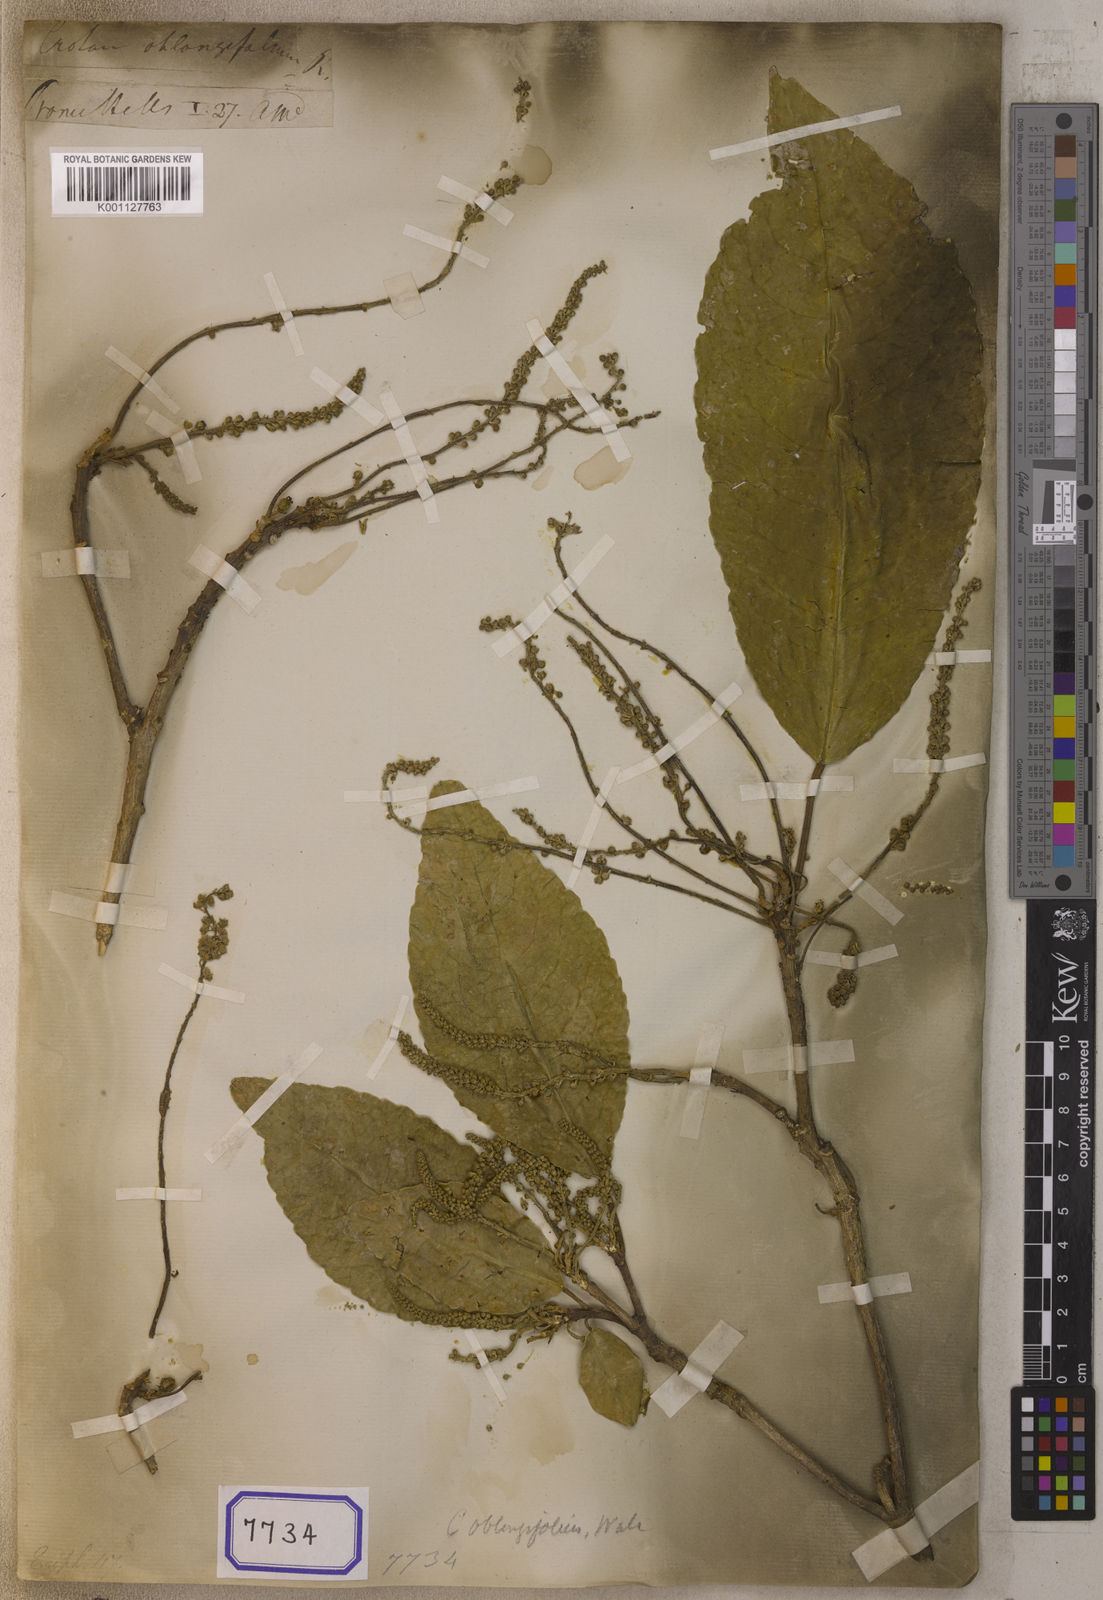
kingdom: Plantae
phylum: Tracheophyta
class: Magnoliopsida
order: Malpighiales
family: Euphorbiaceae
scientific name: Euphorbiaceae
